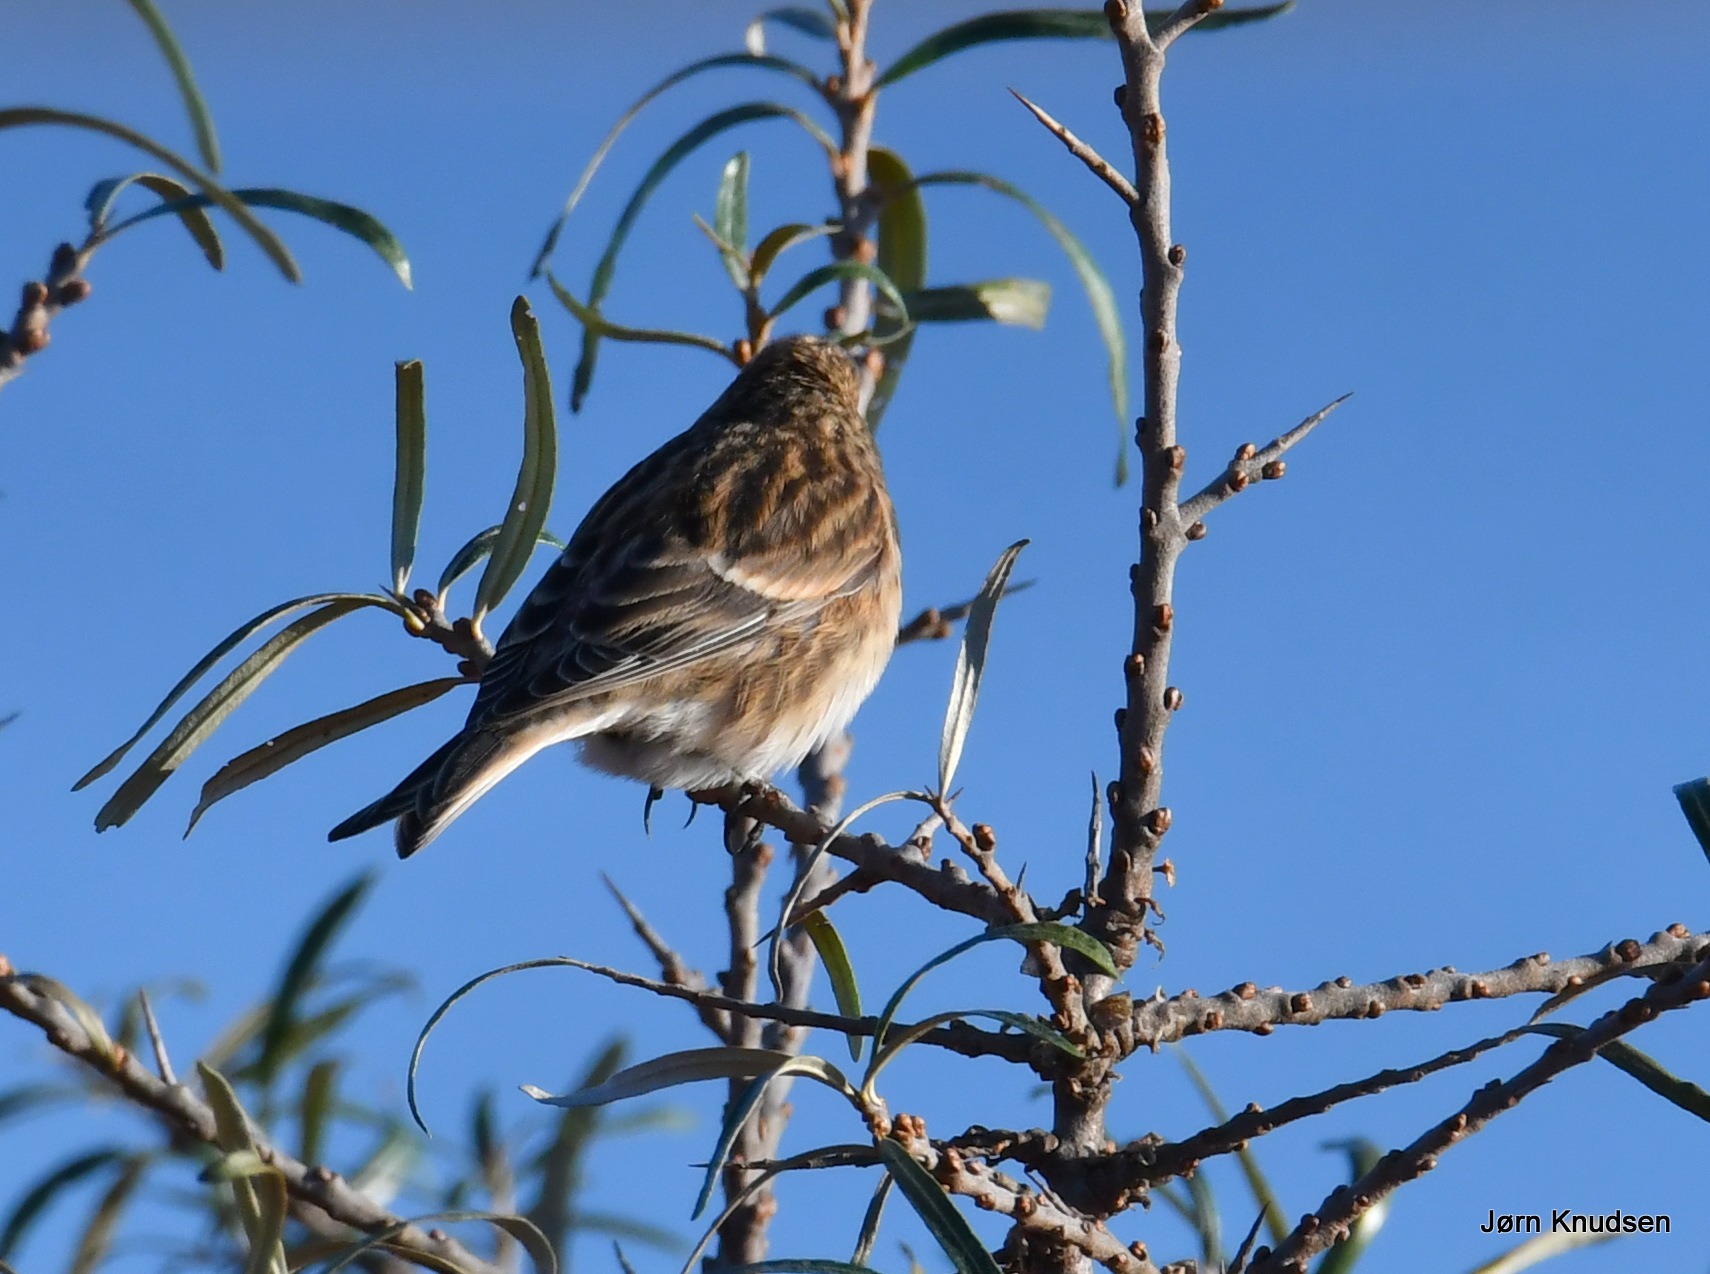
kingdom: Animalia
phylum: Chordata
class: Aves
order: Passeriformes
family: Fringillidae
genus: Linaria
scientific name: Linaria flavirostris
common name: Bjergirisk
